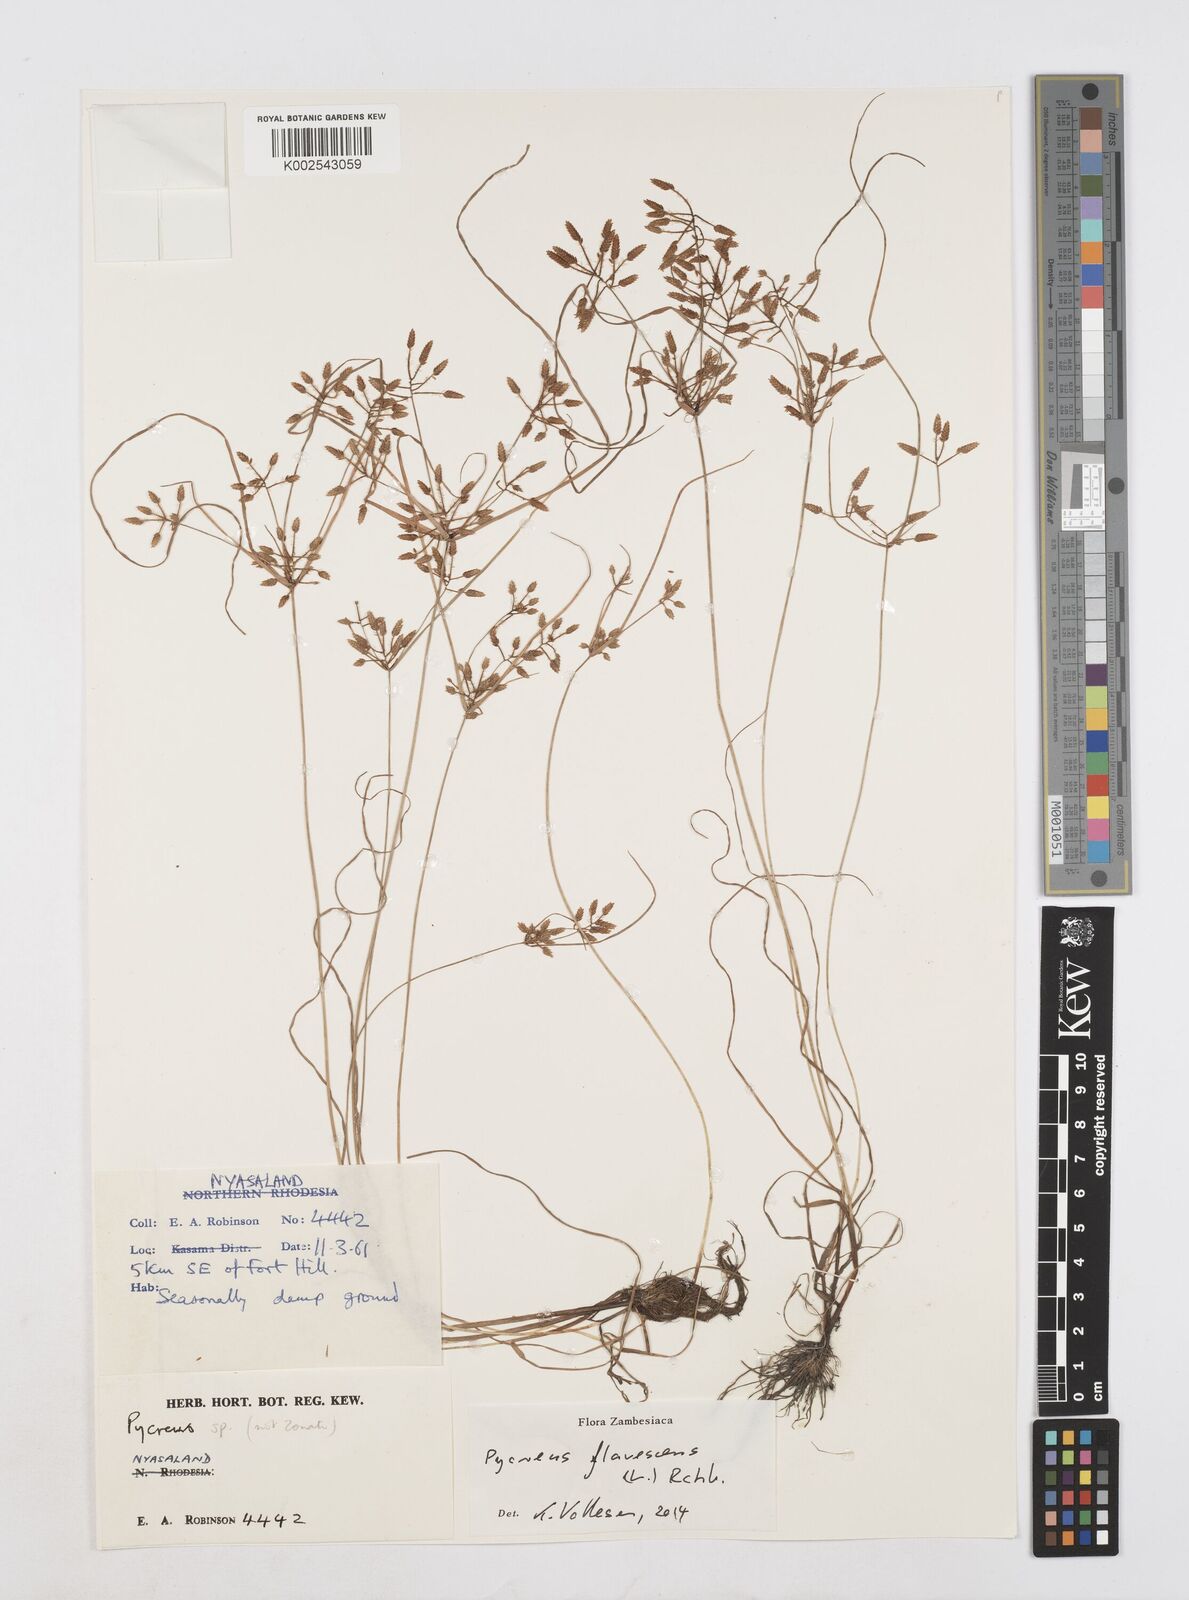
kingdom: Plantae
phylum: Tracheophyta
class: Liliopsida
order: Poales
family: Cyperaceae
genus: Cyperus
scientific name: Cyperus flavescens
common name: Yellow galingale
